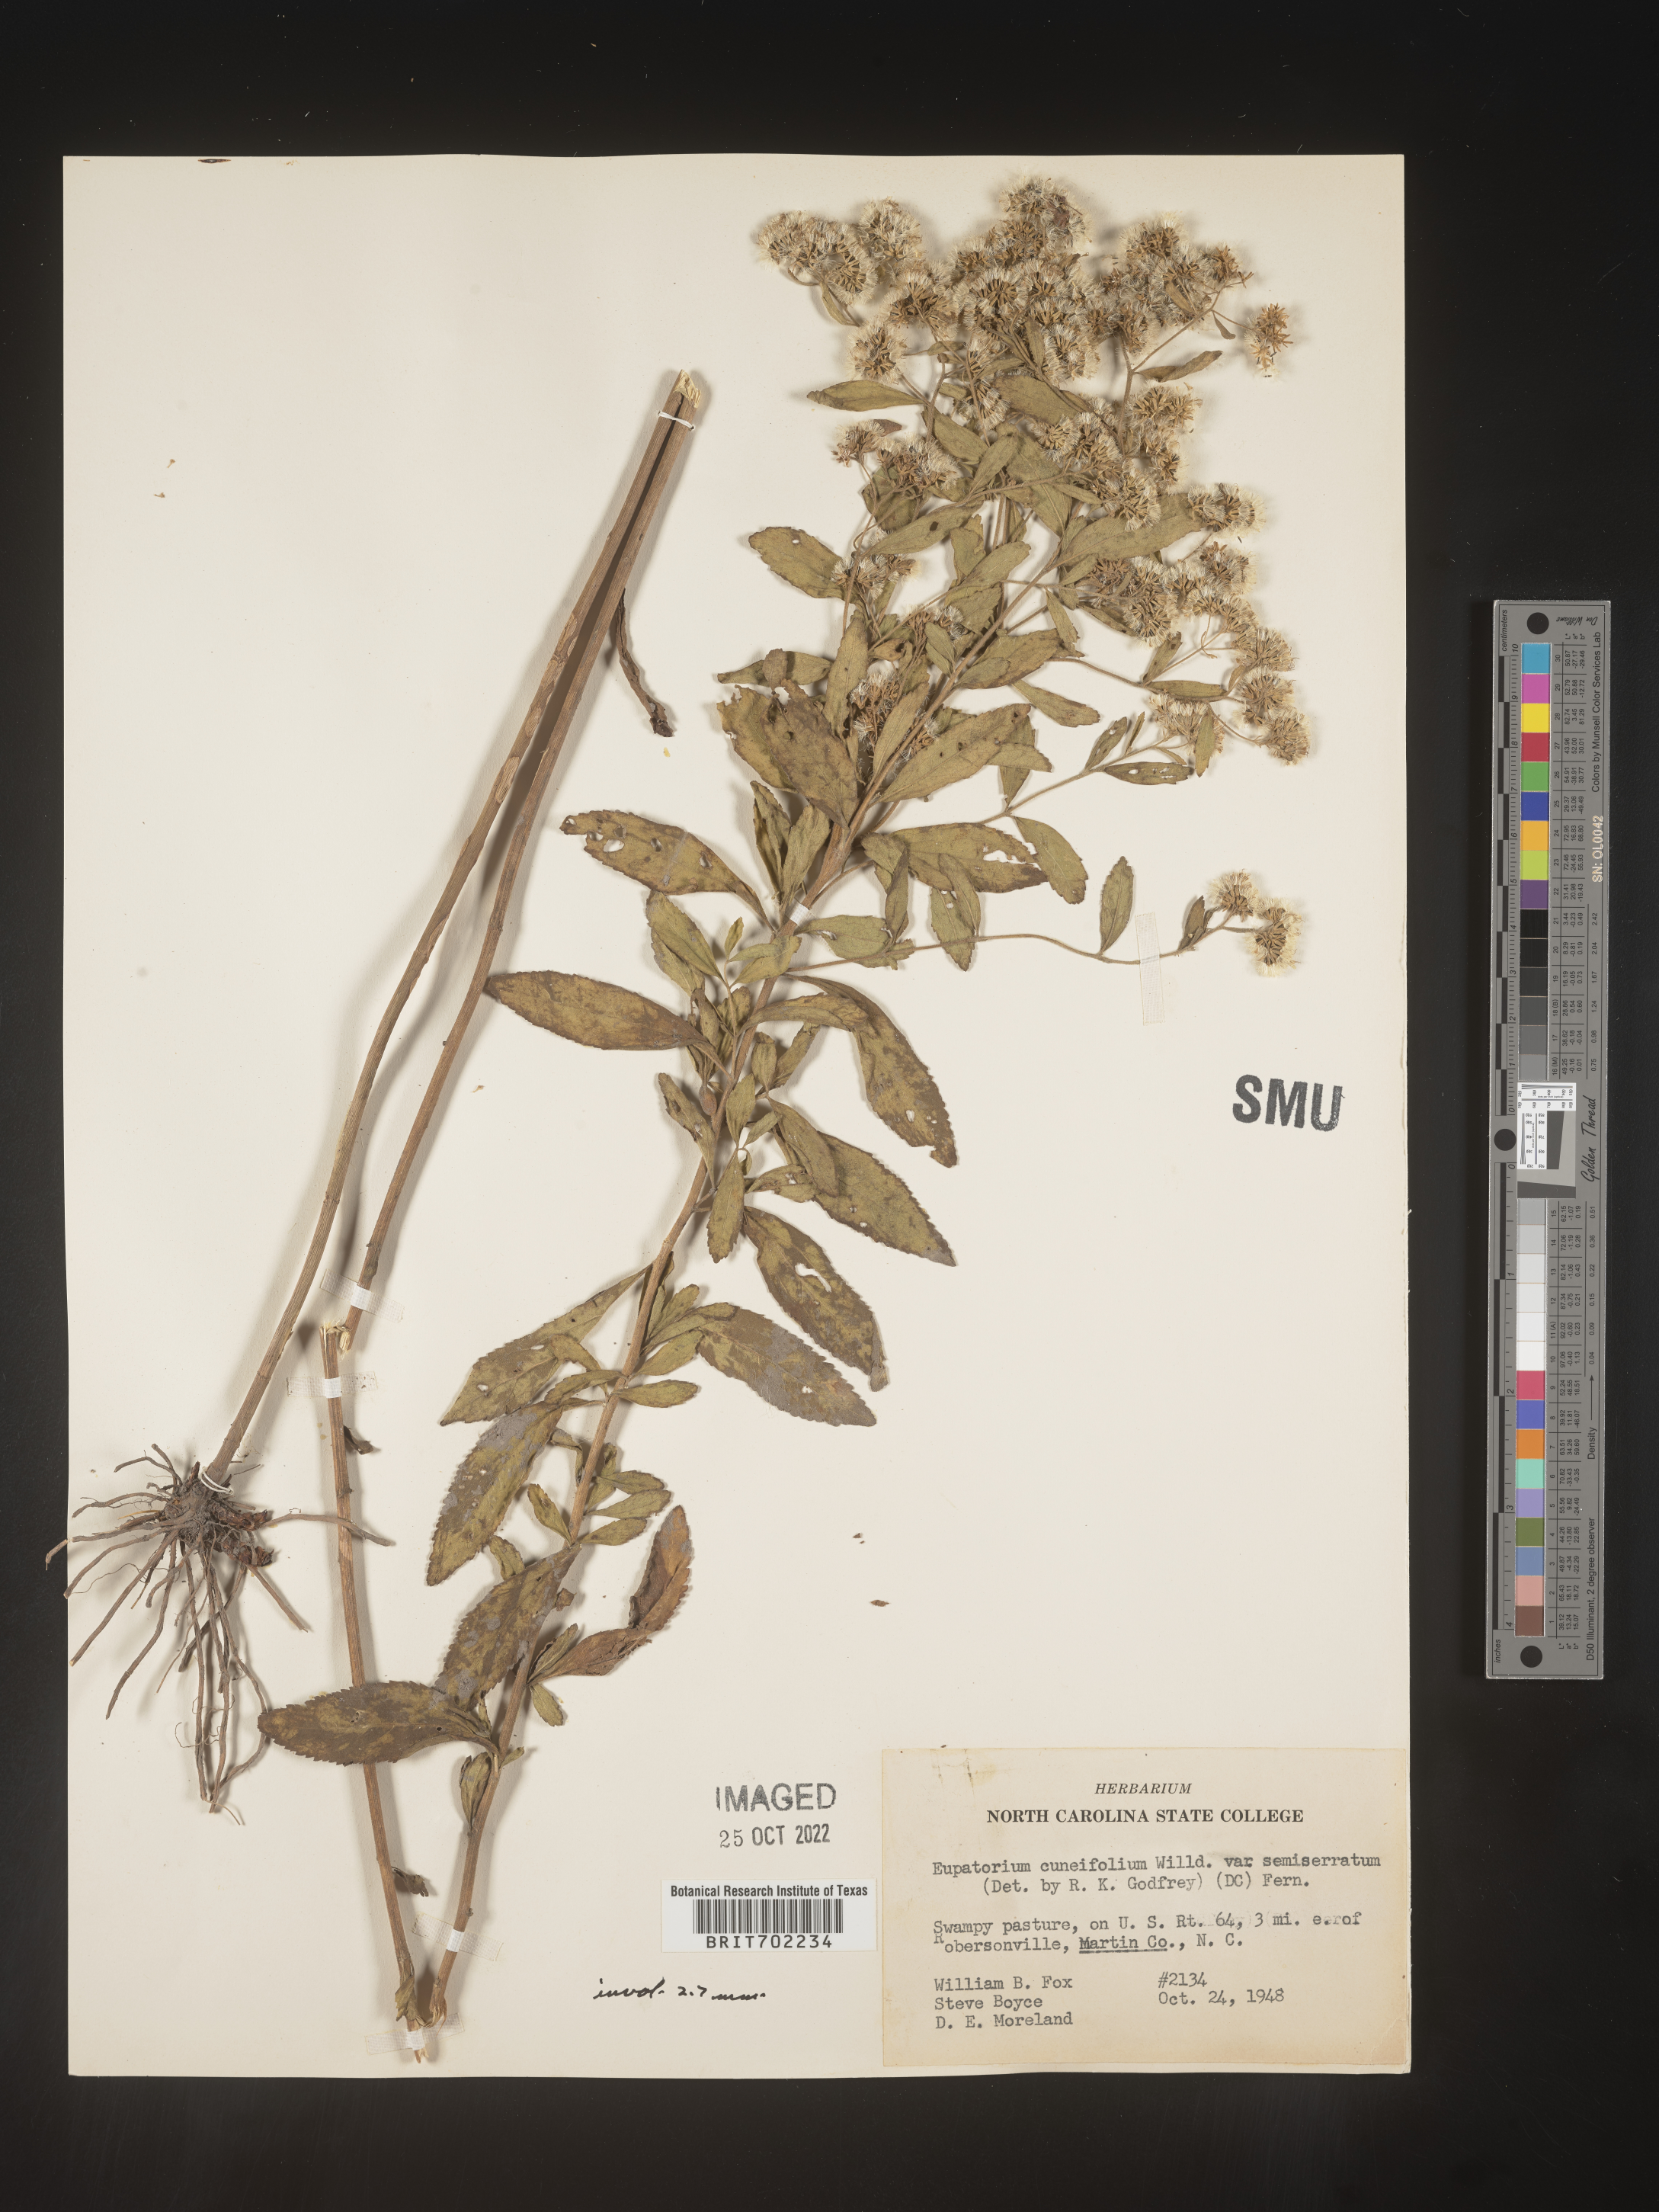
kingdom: Plantae
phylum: Tracheophyta
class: Magnoliopsida
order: Asterales
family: Asteraceae
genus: Eupatorium
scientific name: Eupatorium semiserratum
